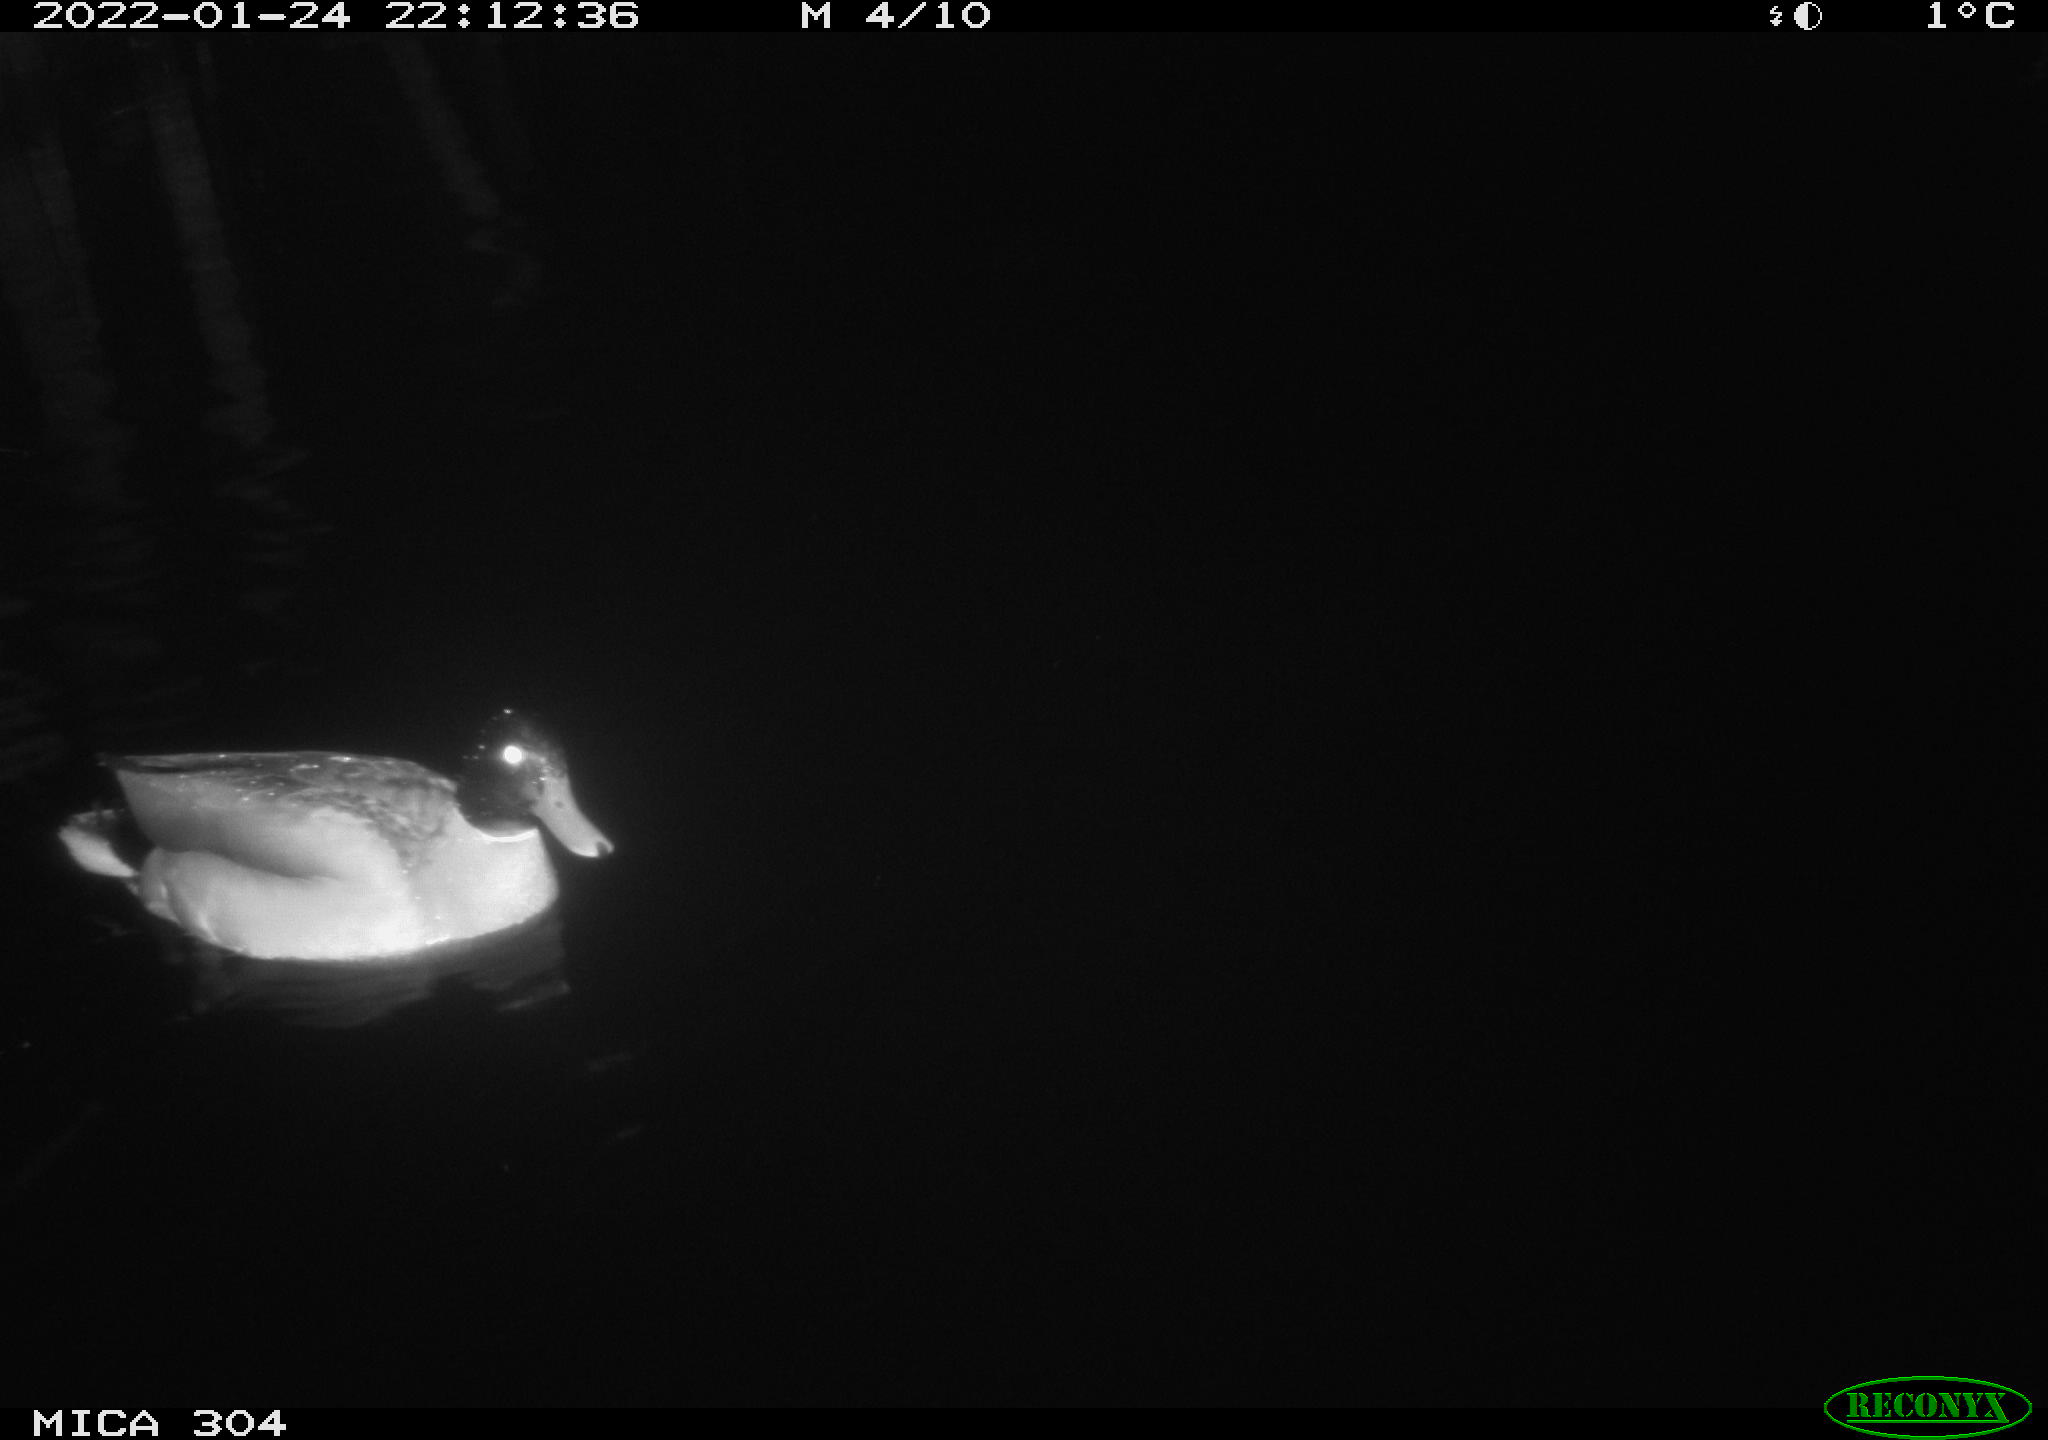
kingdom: Animalia
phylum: Chordata
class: Aves
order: Anseriformes
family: Anatidae
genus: Anas
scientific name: Anas
